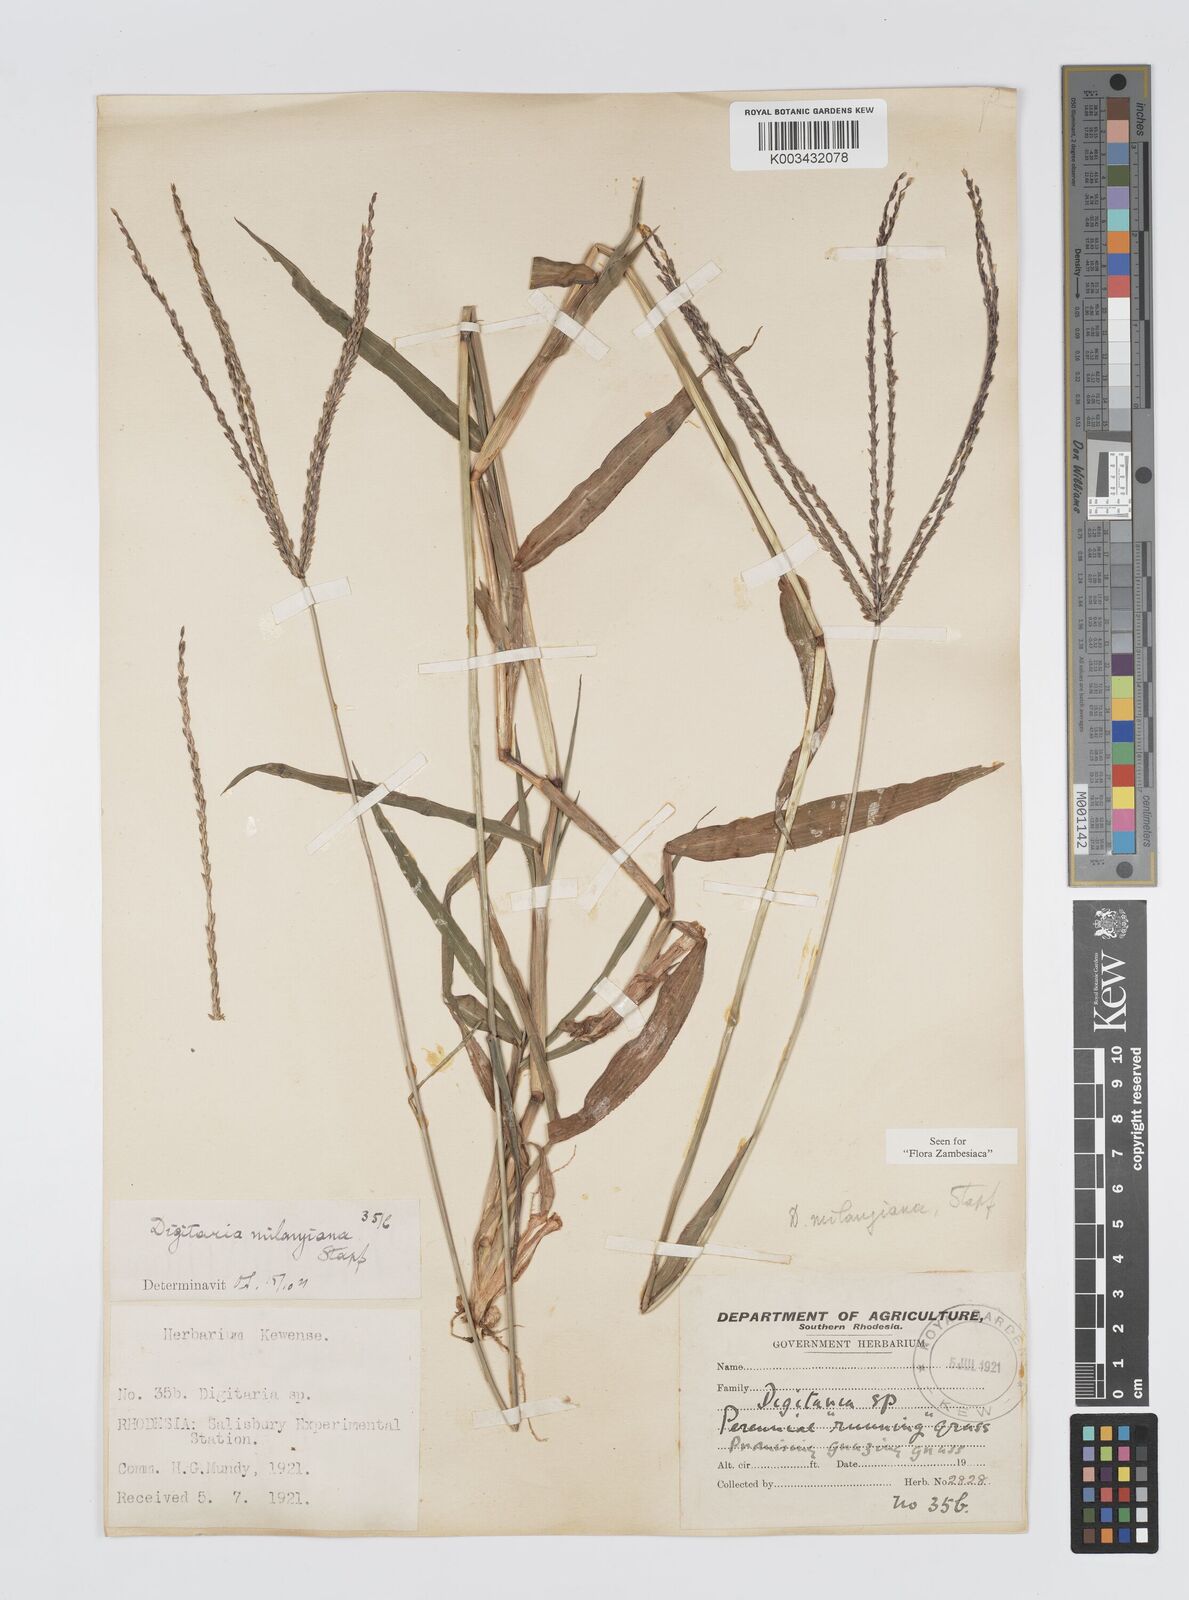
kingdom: Plantae
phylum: Tracheophyta
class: Liliopsida
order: Poales
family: Poaceae
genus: Digitaria
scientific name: Digitaria milanjiana
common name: Madagascar crabgrass
